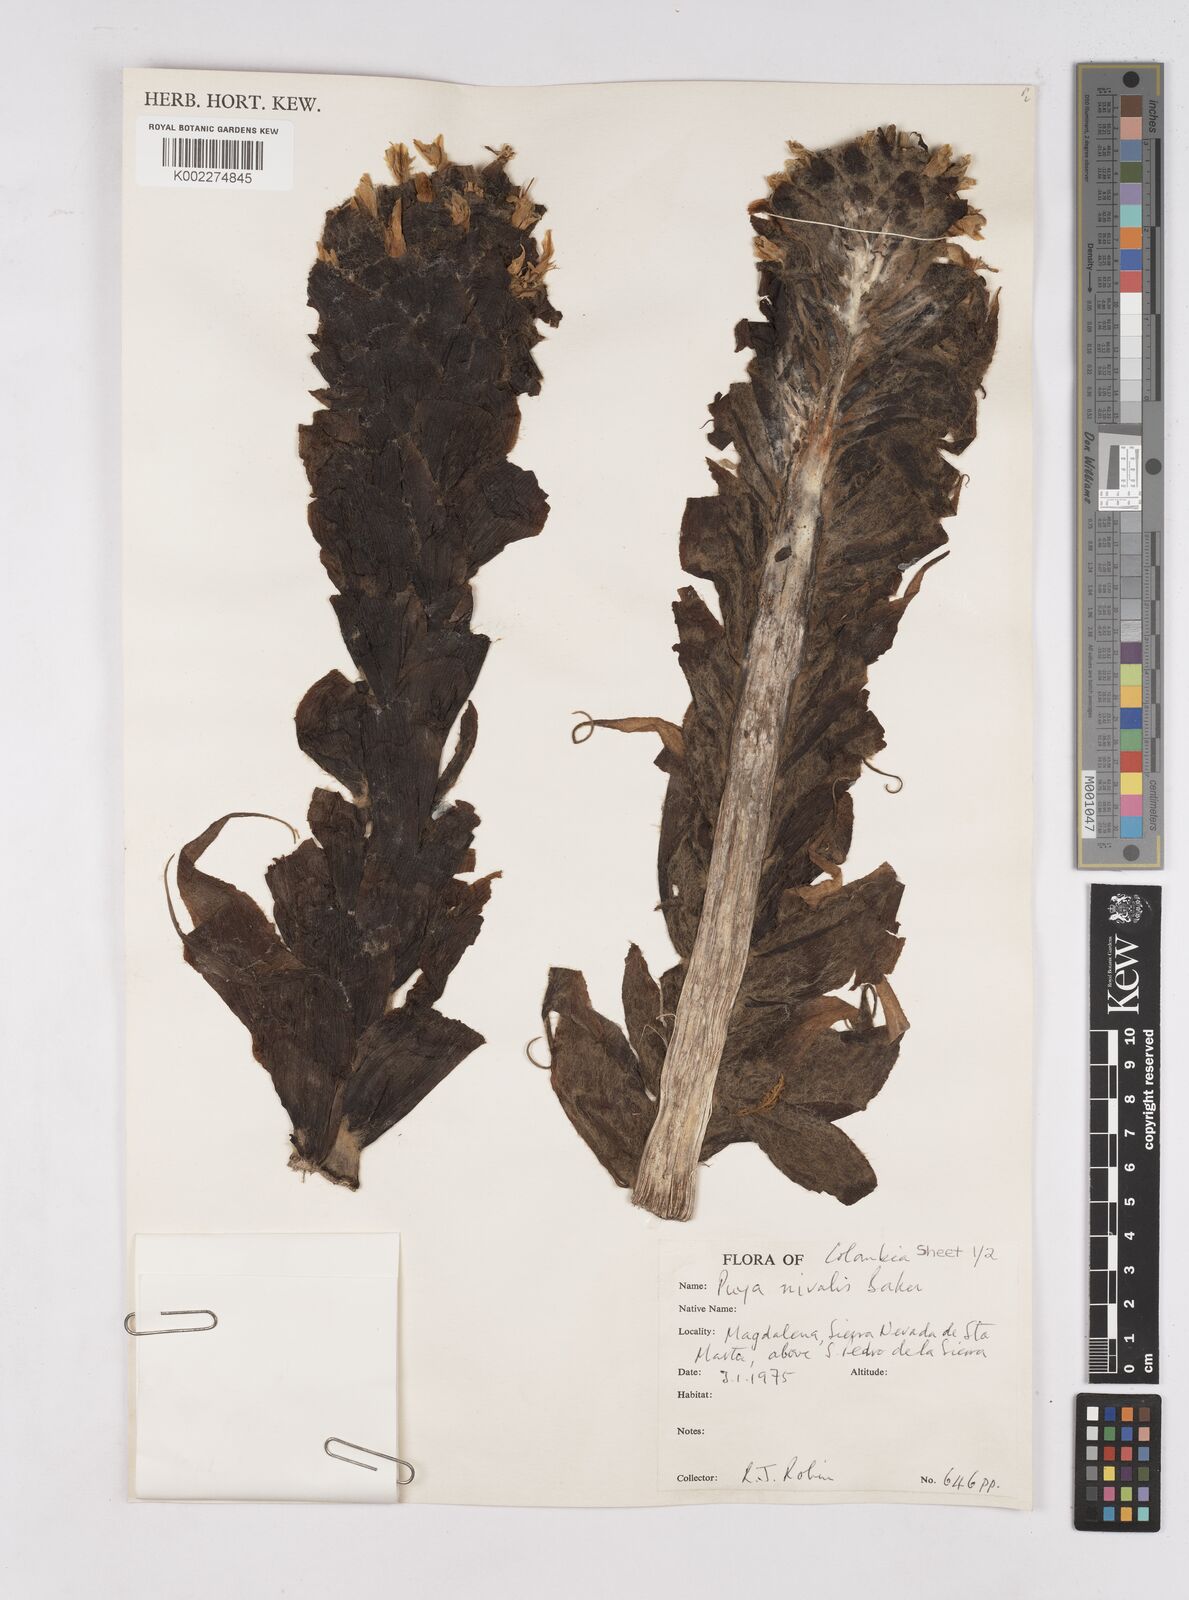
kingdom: Plantae
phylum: Tracheophyta
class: Liliopsida
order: Poales
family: Bromeliaceae
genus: Puya
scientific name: Puya nivalis
